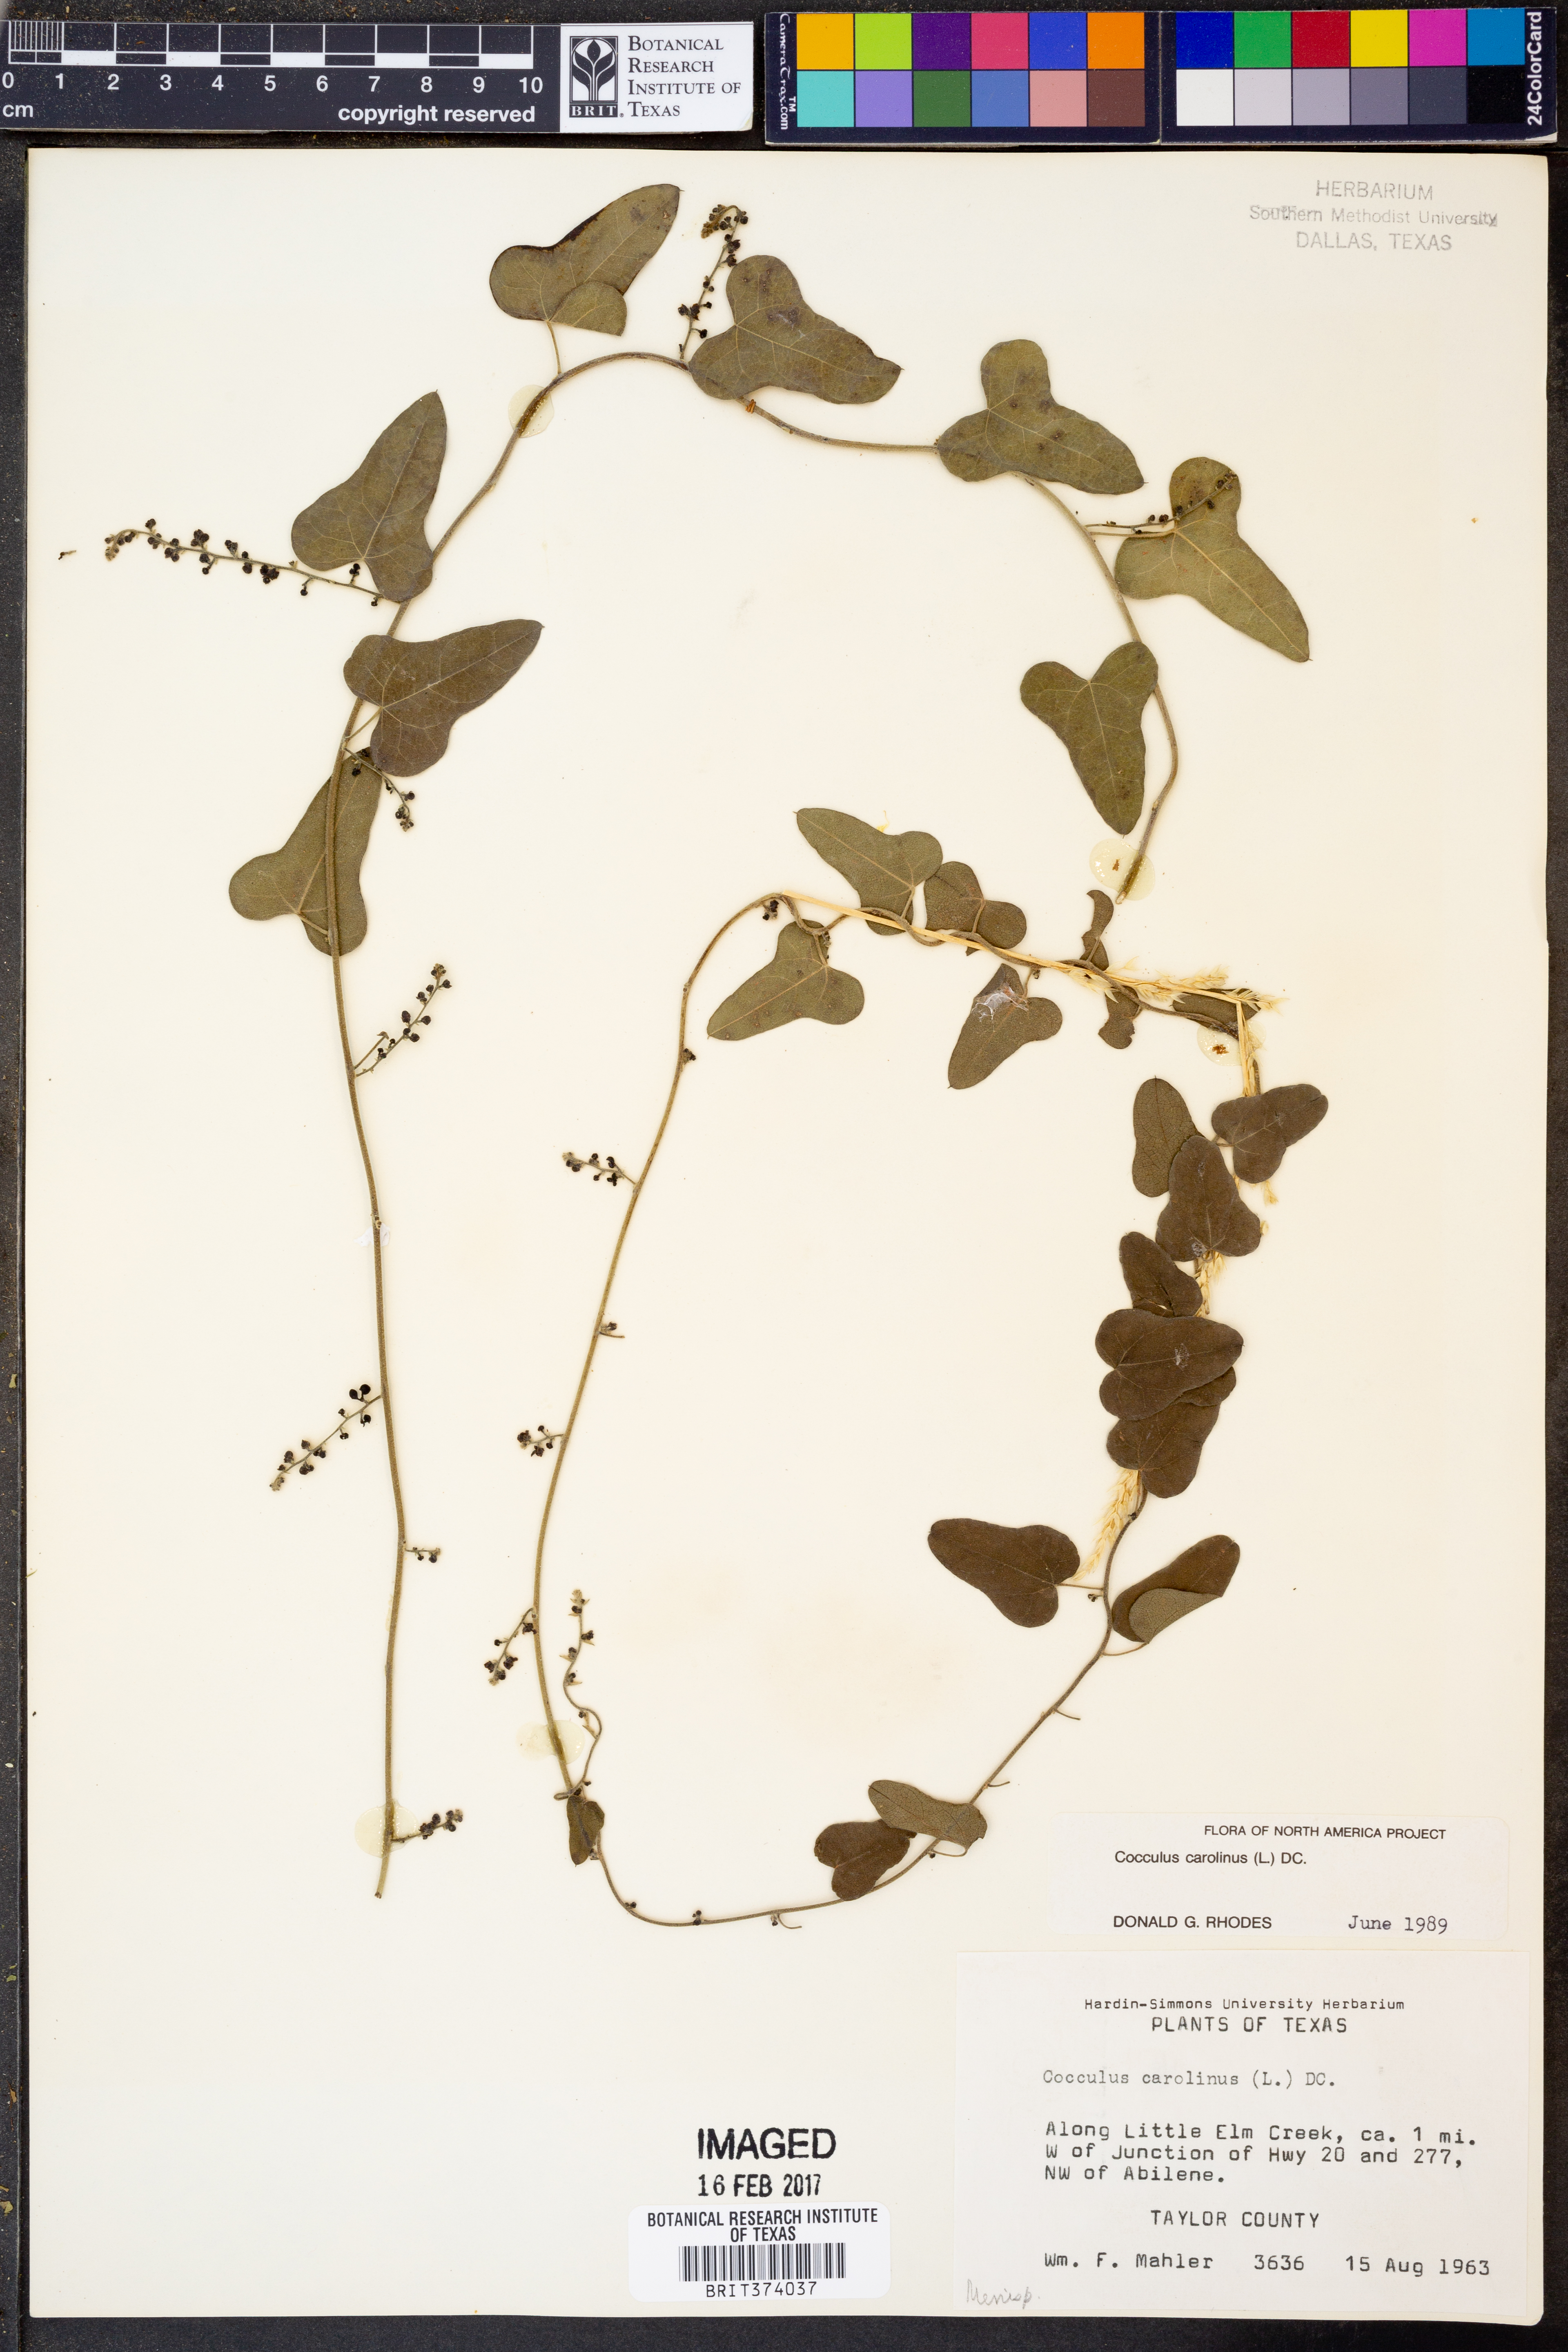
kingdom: Plantae
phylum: Tracheophyta
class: Magnoliopsida
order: Ranunculales
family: Menispermaceae
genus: Cocculus
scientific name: Cocculus carolinus
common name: Carolina moonseed
